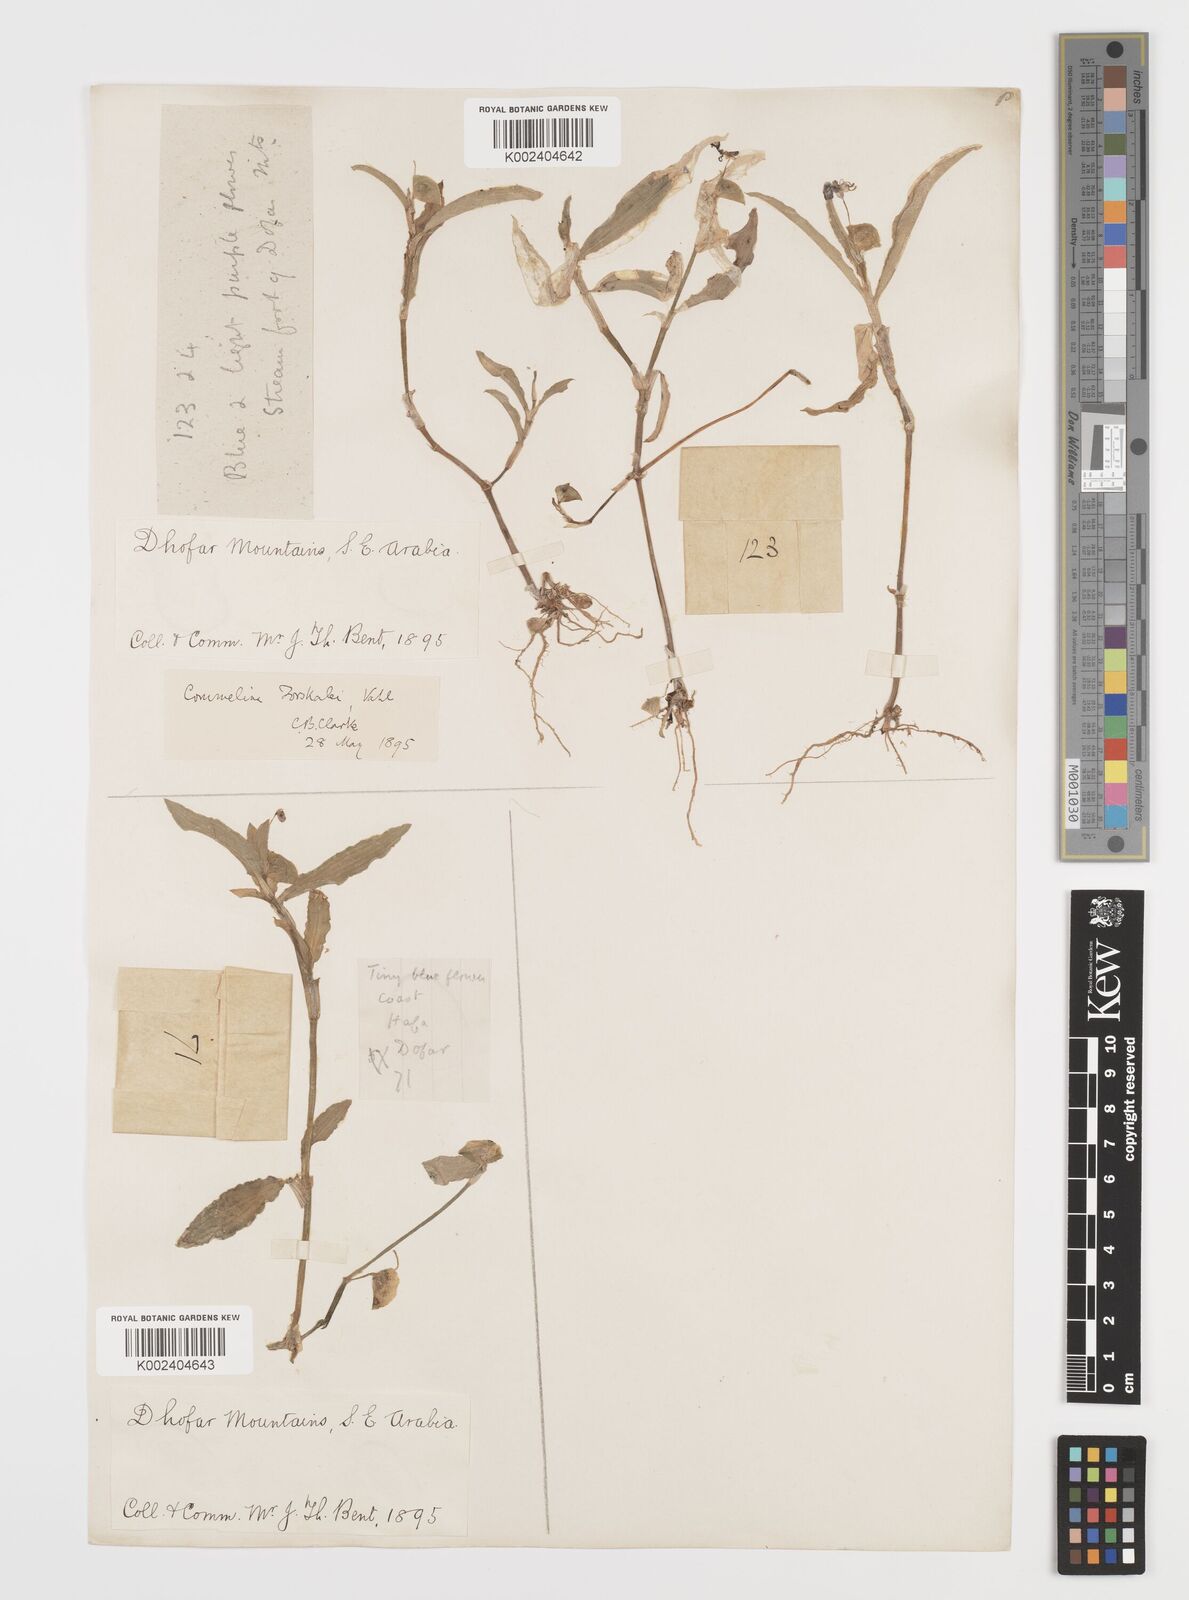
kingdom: Plantae
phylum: Tracheophyta
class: Liliopsida
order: Commelinales
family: Commelinaceae
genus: Commelina
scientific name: Commelina forskaolii
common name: Rat's ear
